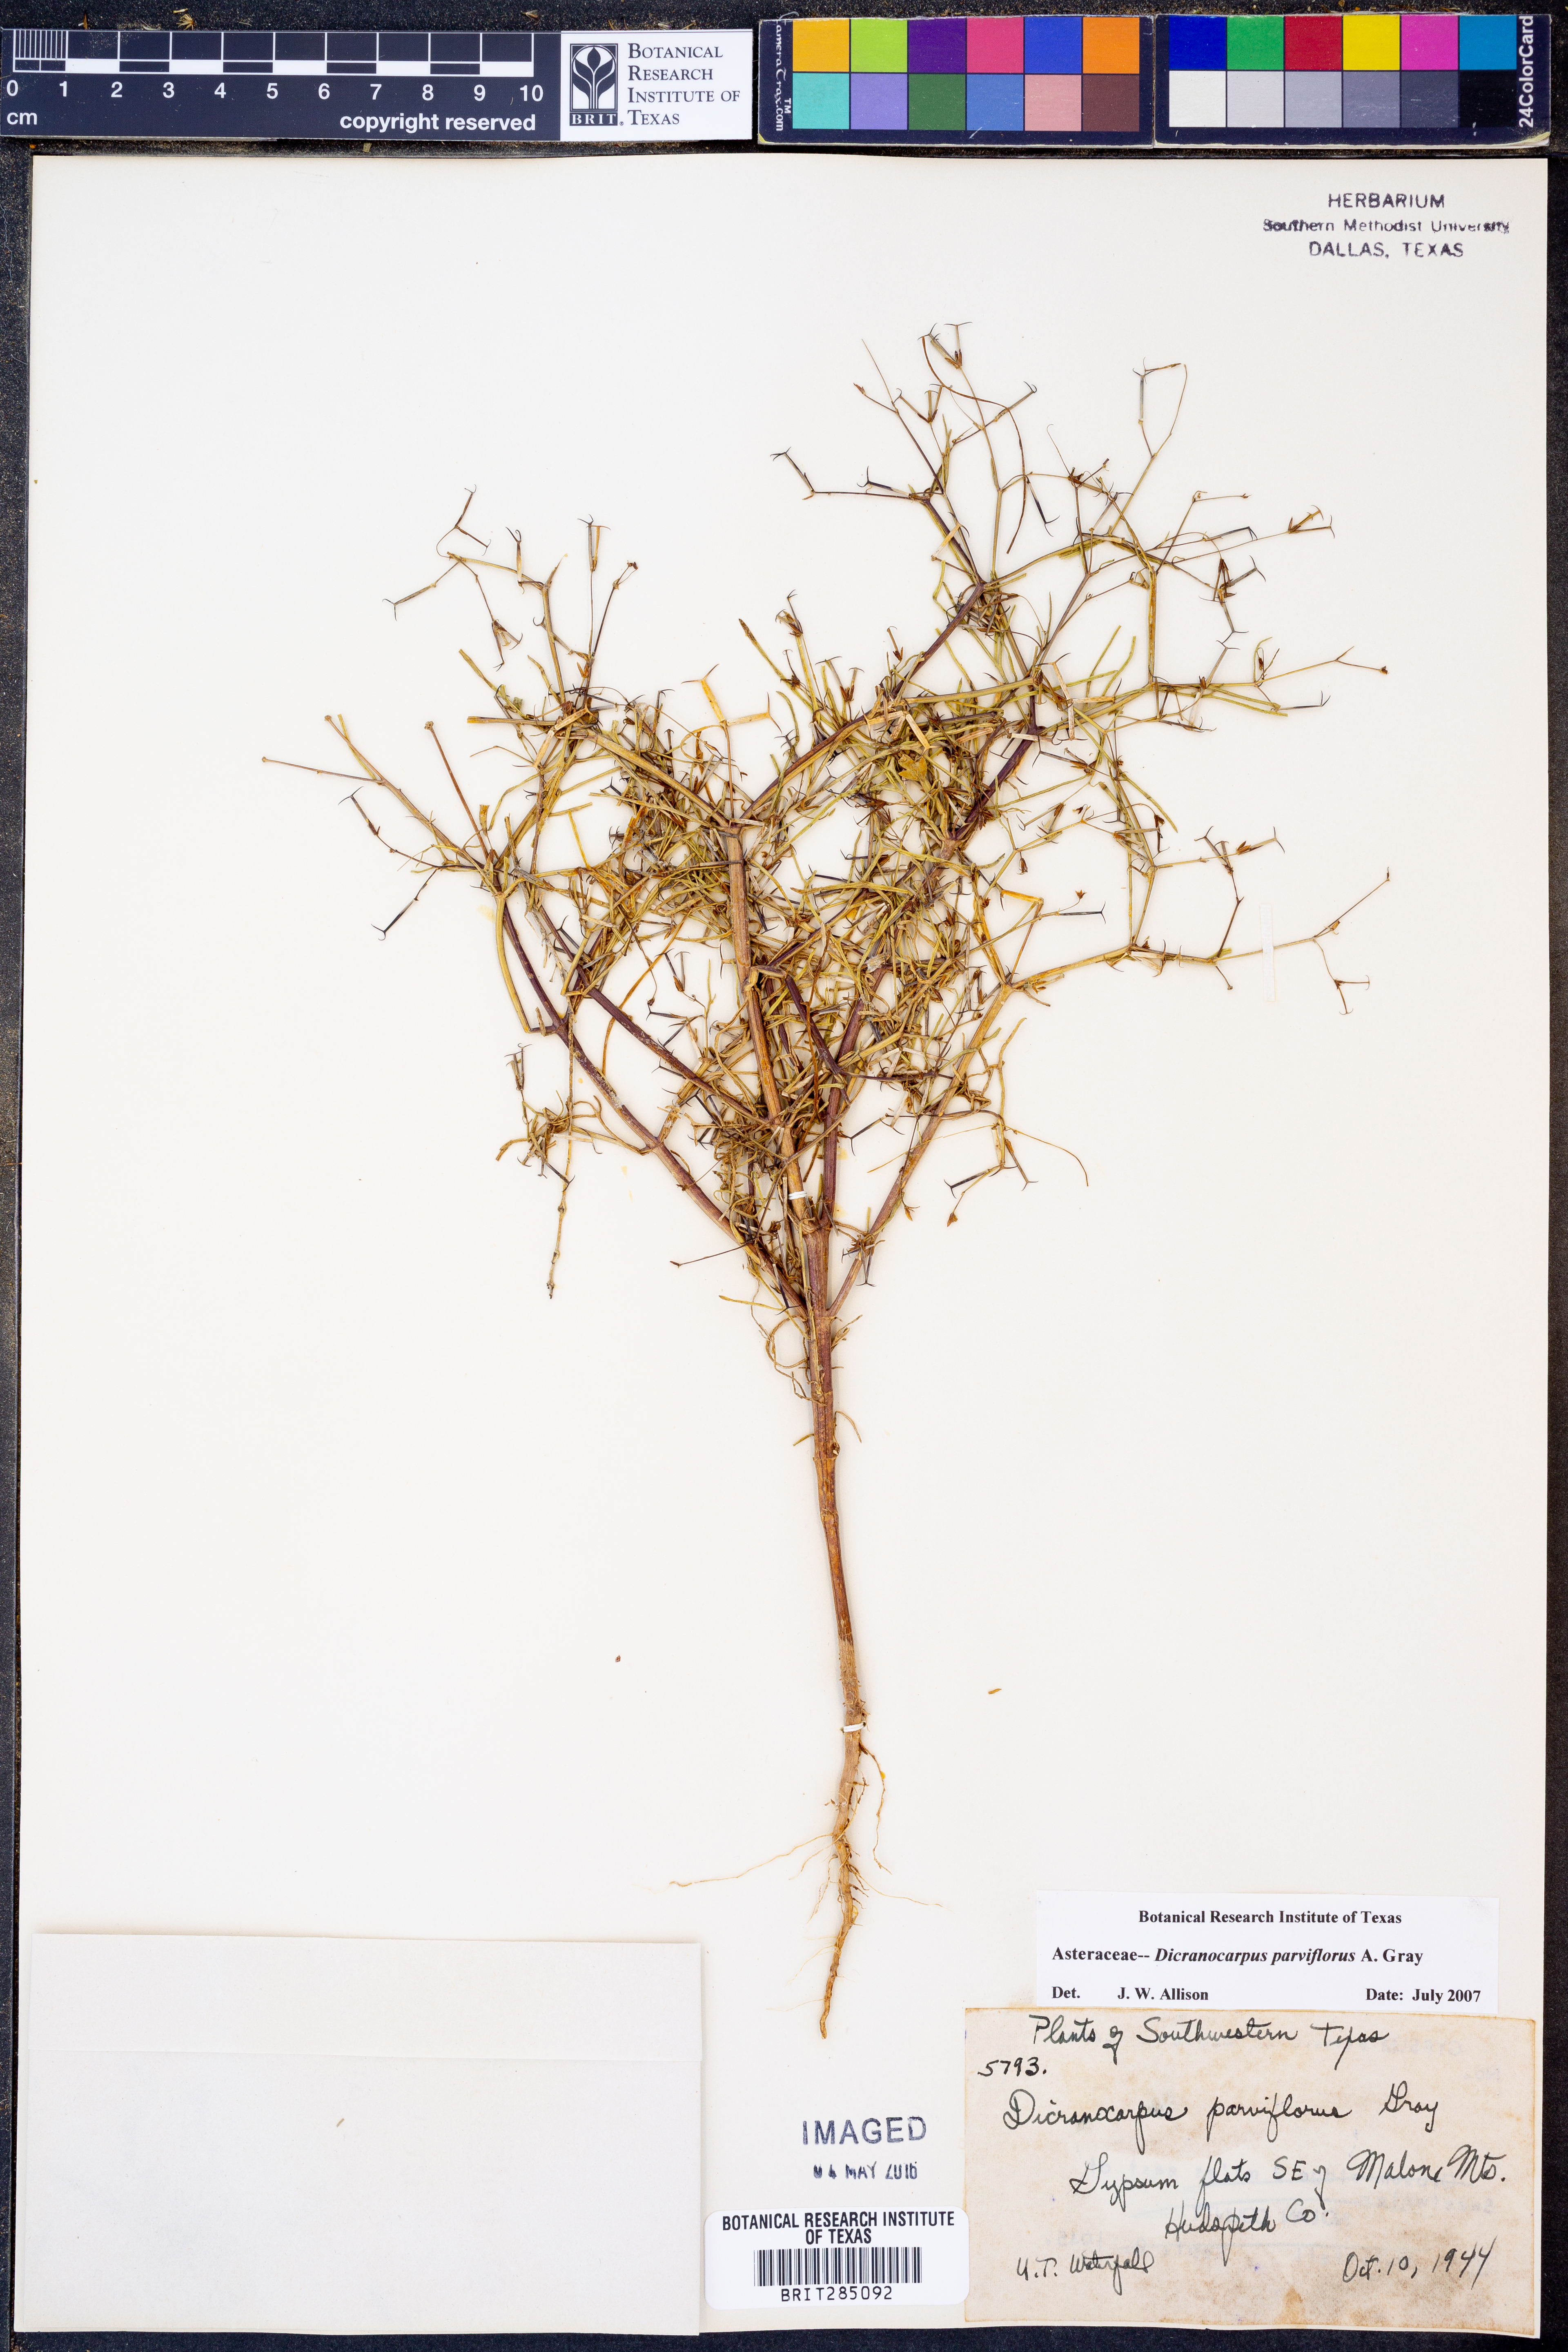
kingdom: Plantae
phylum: Tracheophyta
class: Magnoliopsida
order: Asterales
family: Asteraceae
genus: Dicranocarpus
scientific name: Dicranocarpus parviflorus
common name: Pitchfork
